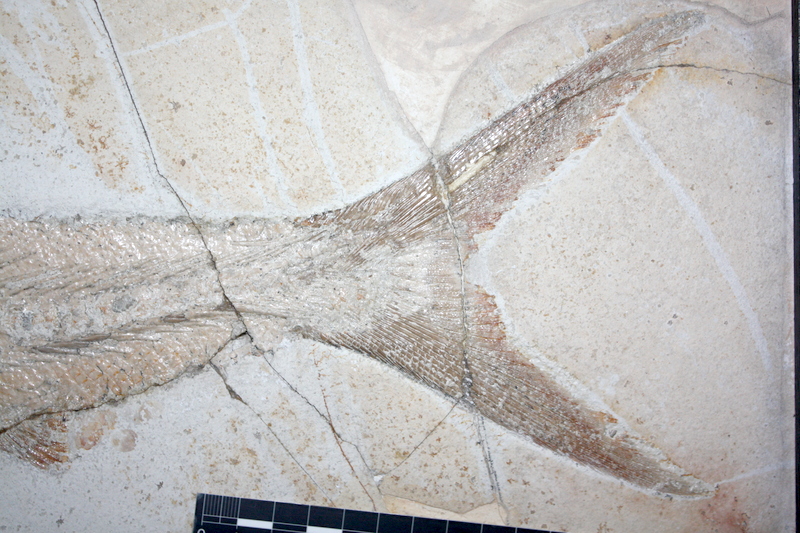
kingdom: Animalia
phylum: Chordata
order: Amiiformes
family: Caturidae
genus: Caturus
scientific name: Caturus furcatus
